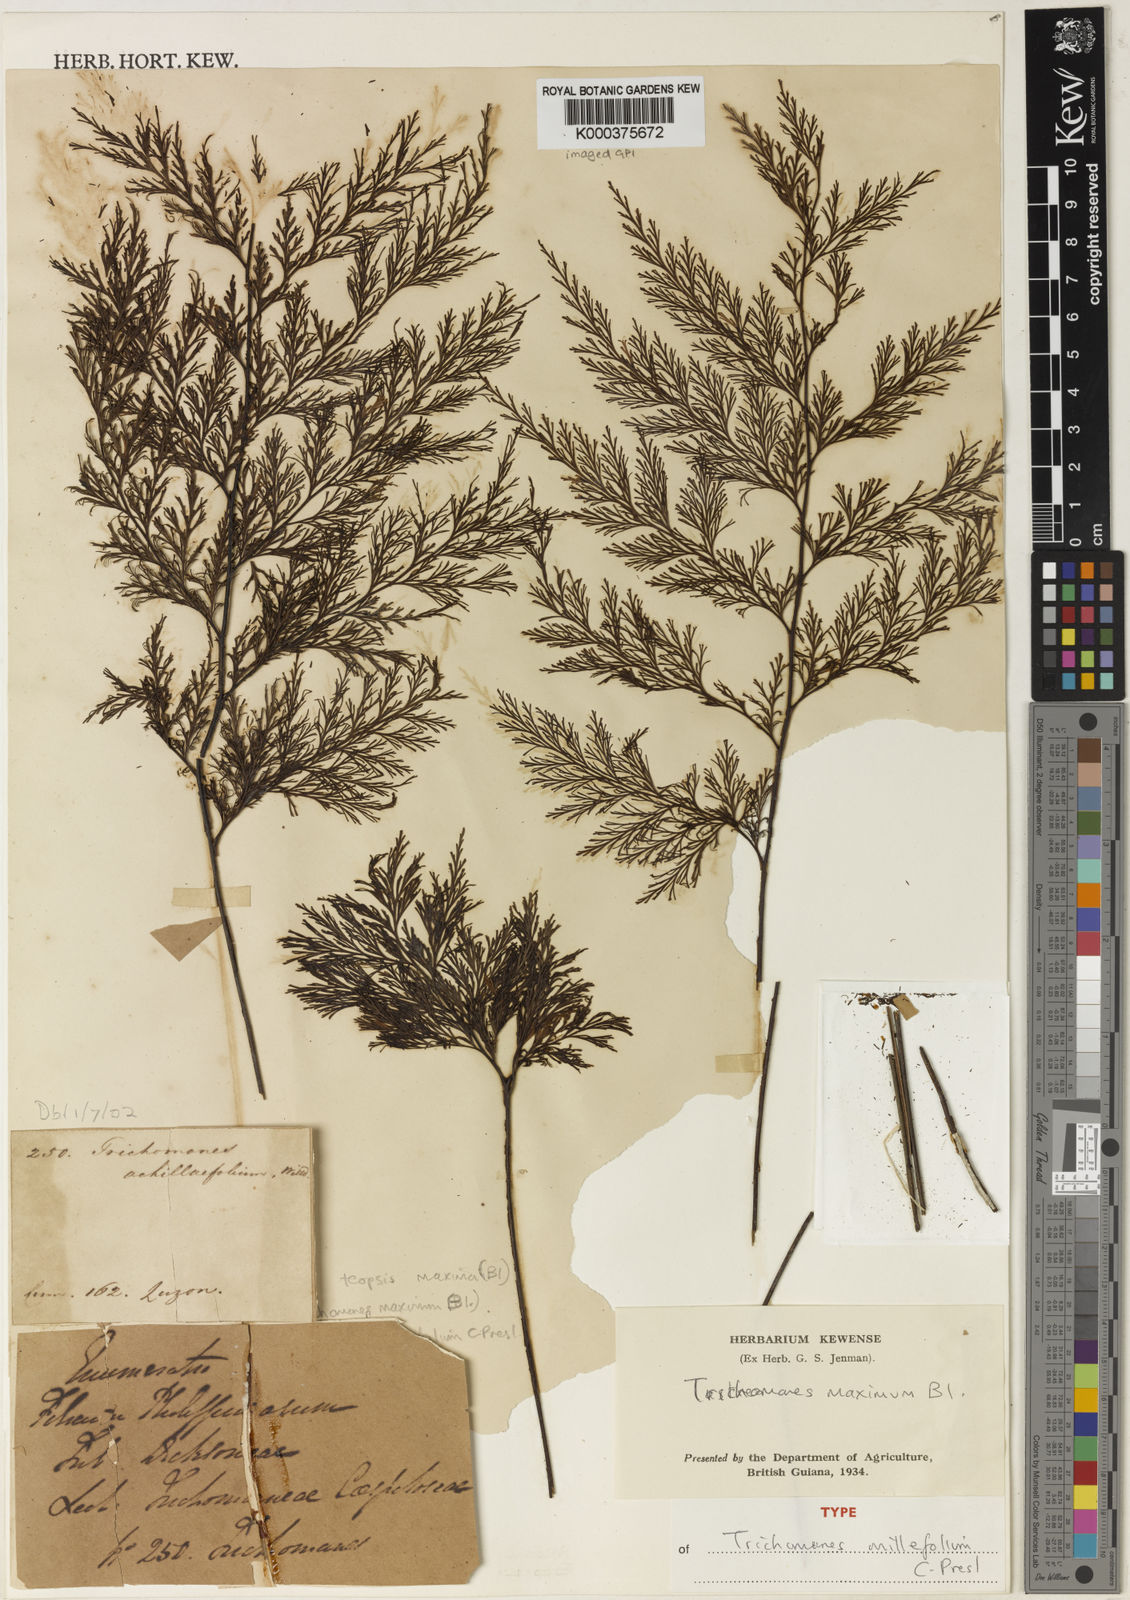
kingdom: Plantae
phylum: Tracheophyta
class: Polypodiopsida
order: Hymenophyllales
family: Hymenophyllaceae
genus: Vandenboschia
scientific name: Vandenboschia maxima
